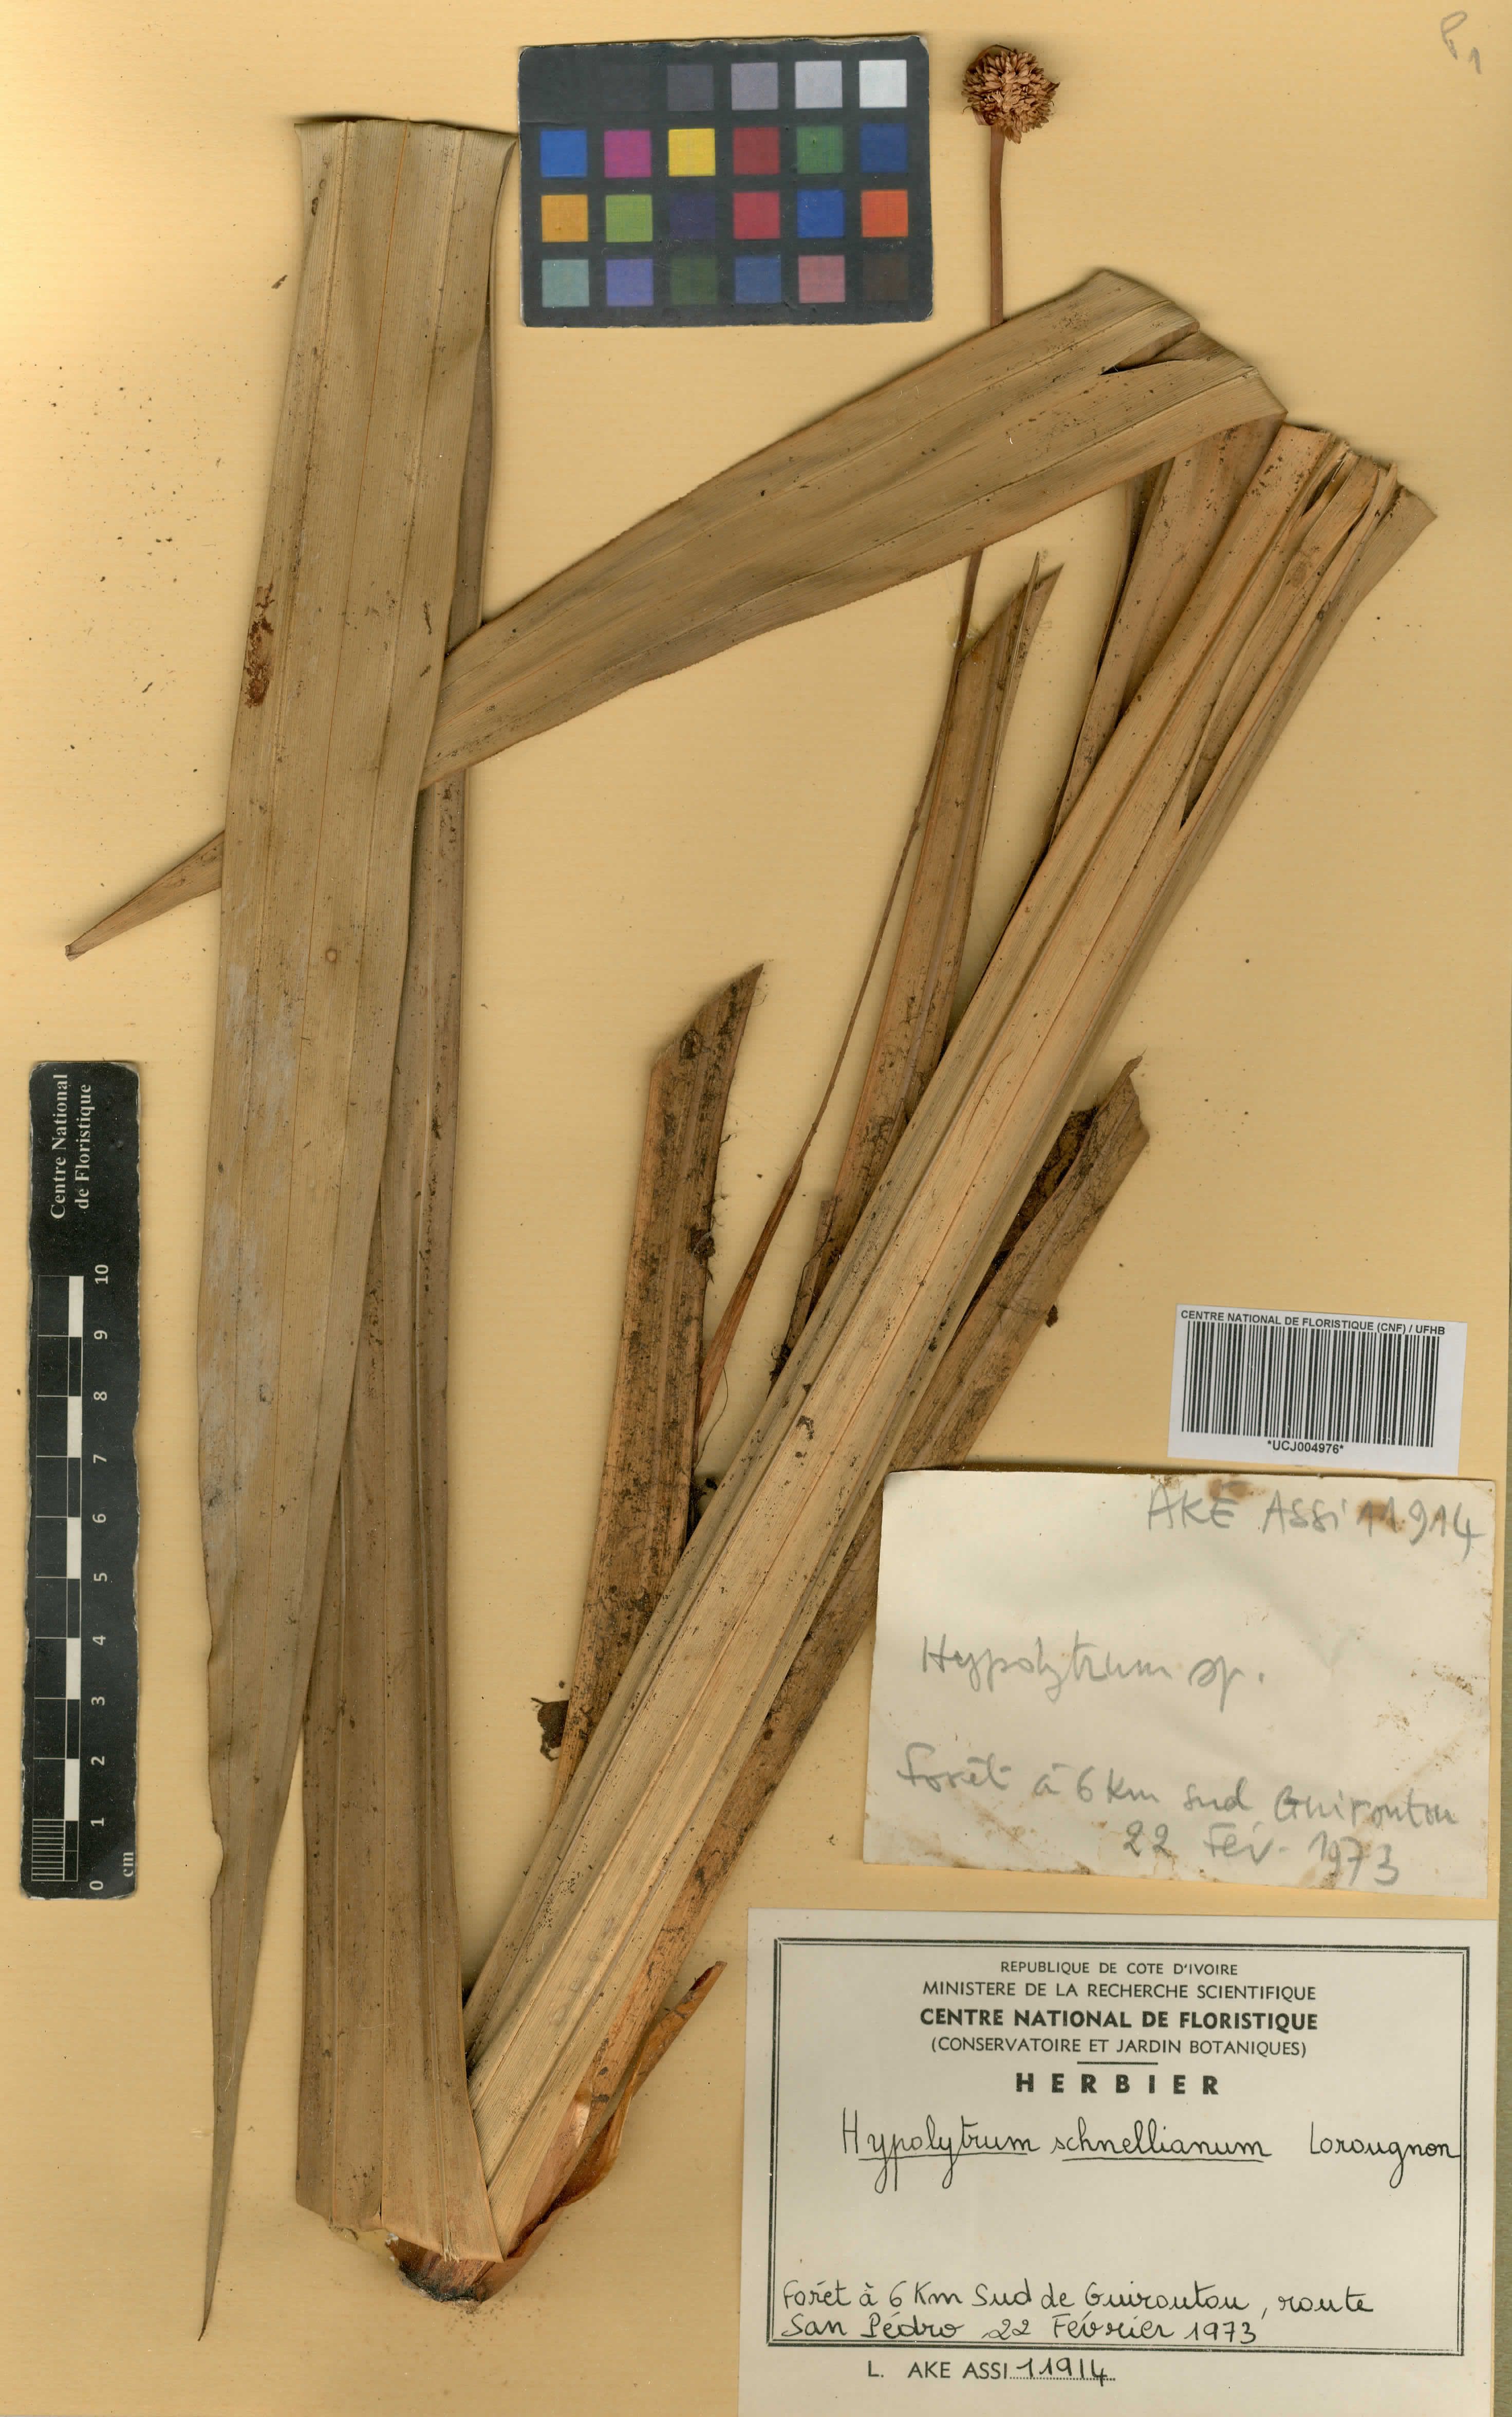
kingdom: Plantae
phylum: Tracheophyta
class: Liliopsida
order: Poales
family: Cyperaceae
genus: Hypolytrum
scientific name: Hypolytrum schnellianum
